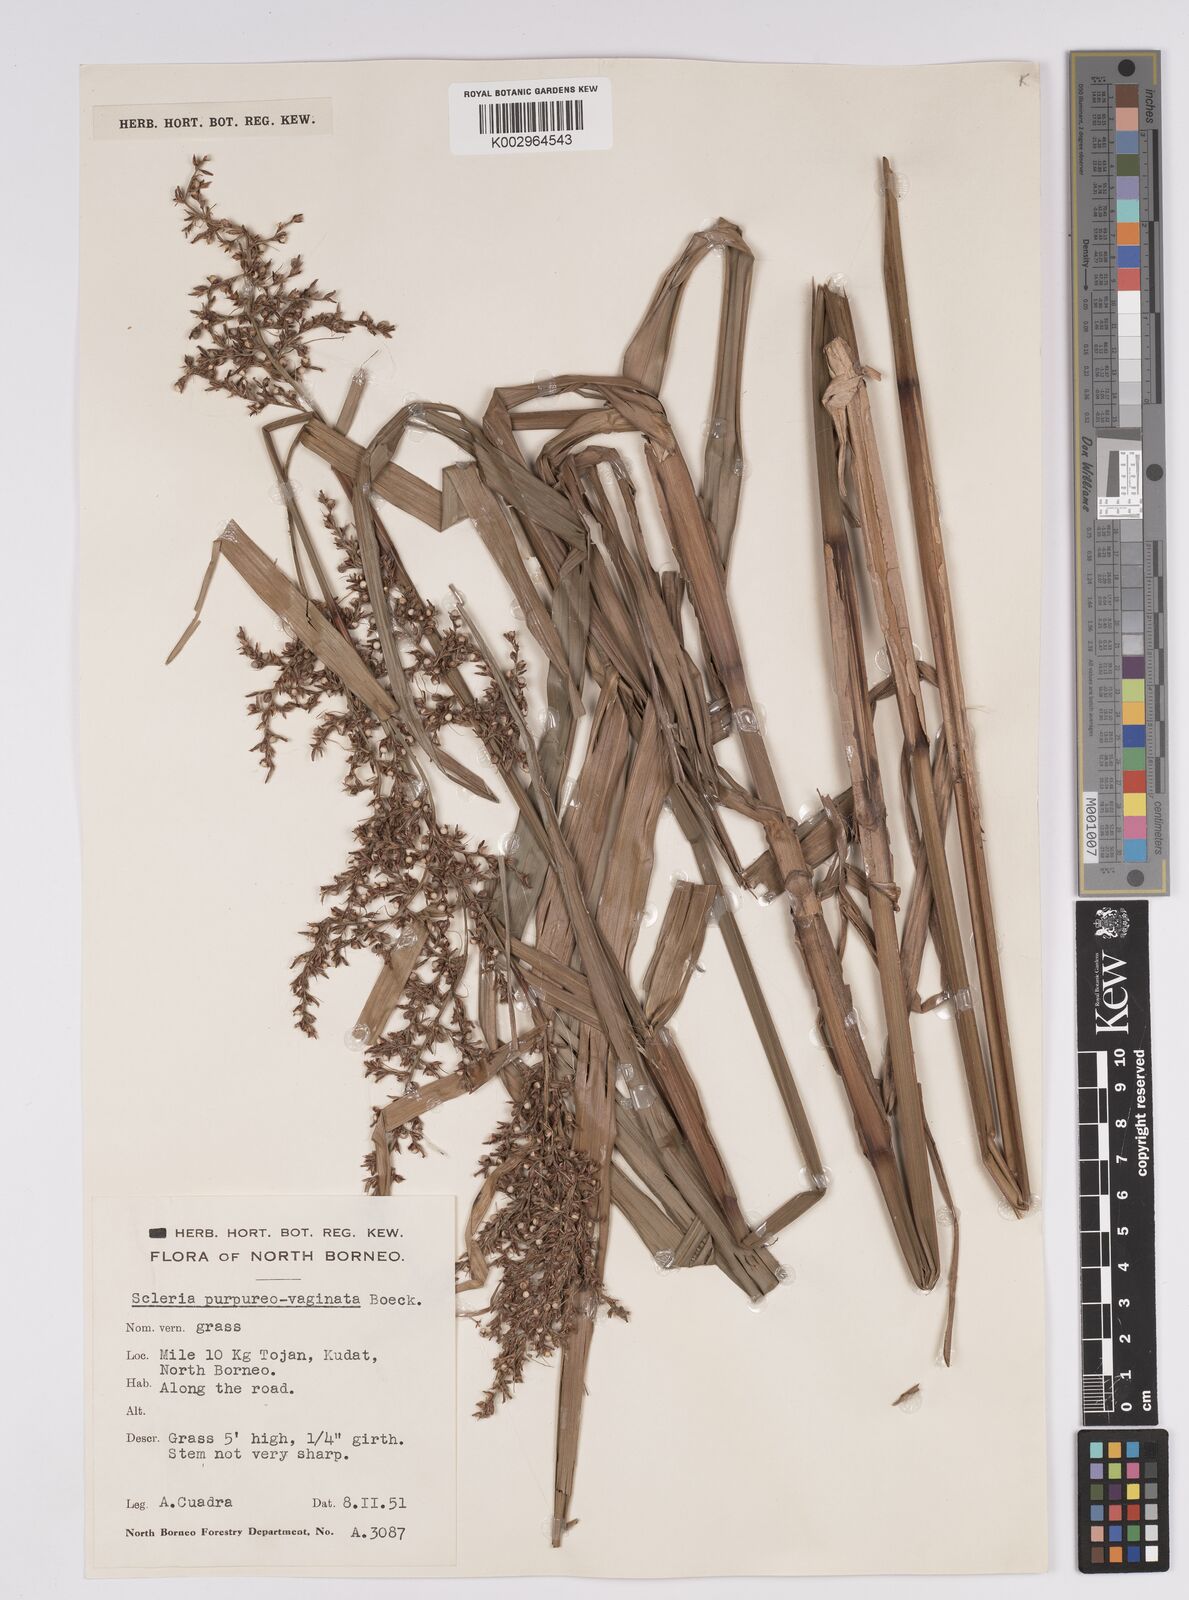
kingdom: Plantae
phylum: Tracheophyta
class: Liliopsida
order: Poales
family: Cyperaceae
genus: Scleria
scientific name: Scleria scrobiculata
